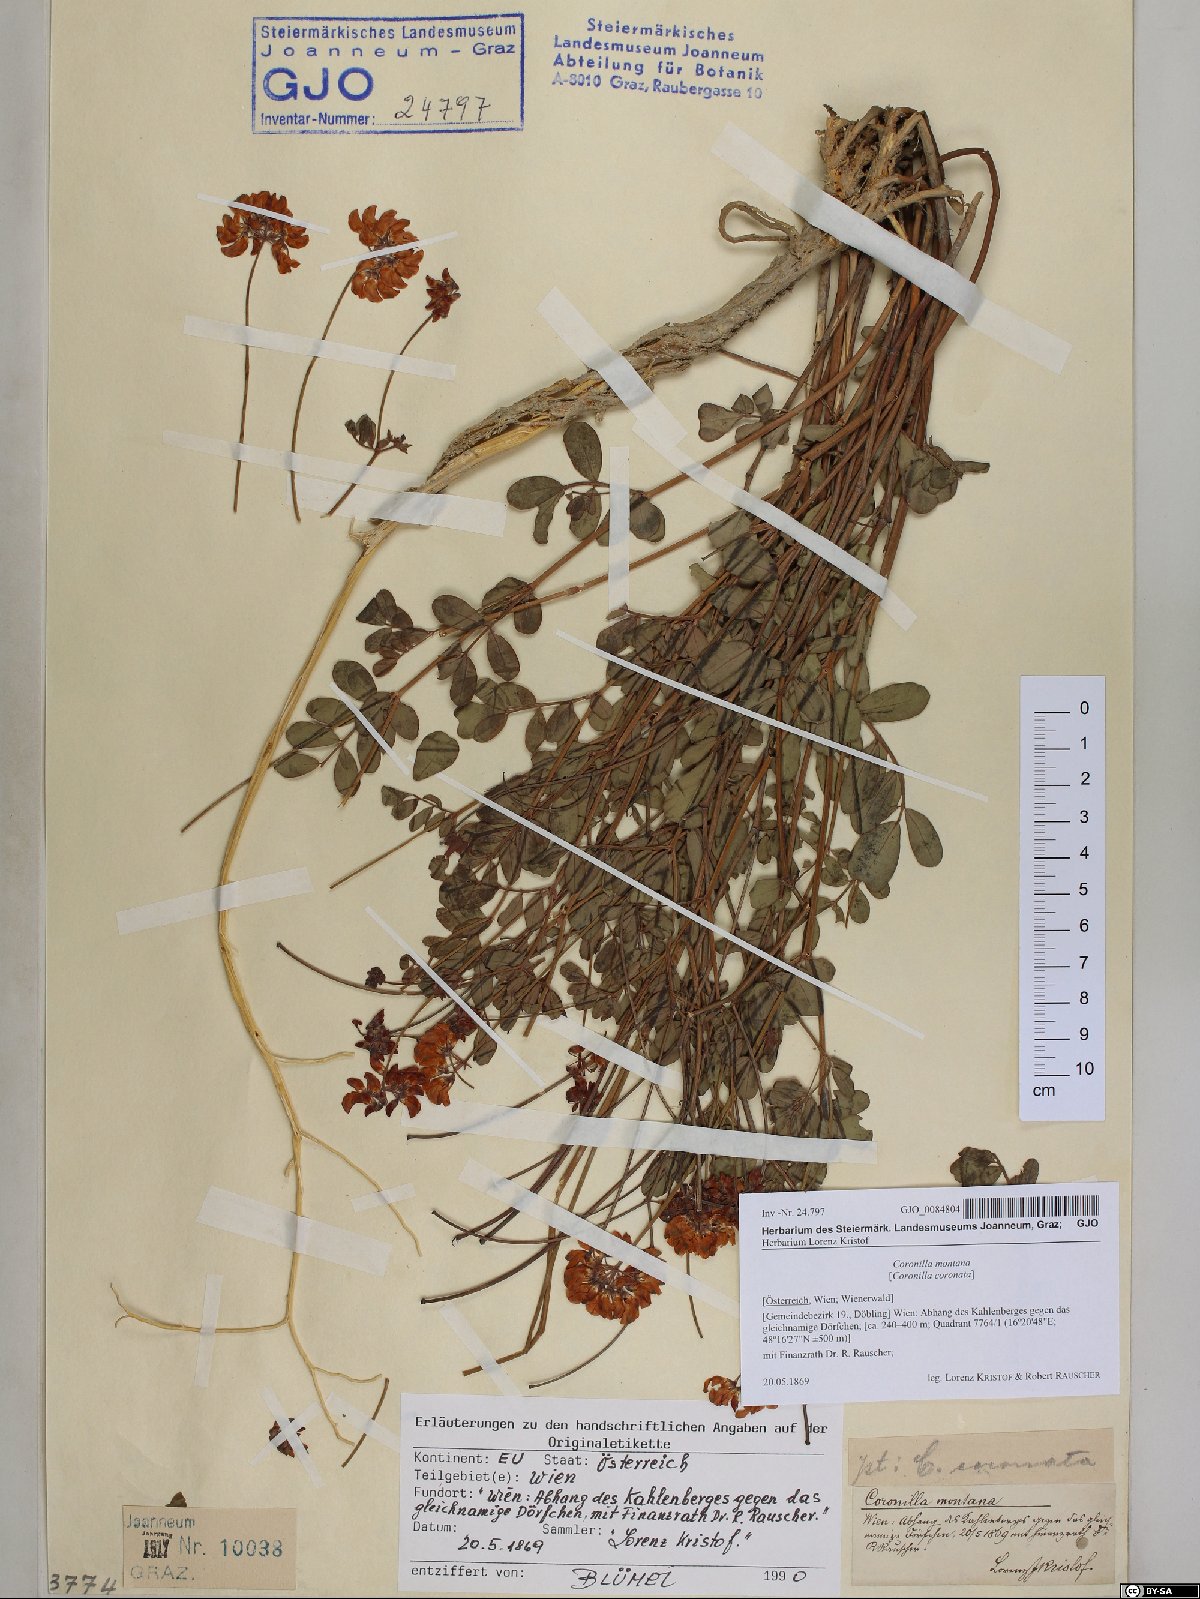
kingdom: Plantae
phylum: Tracheophyta
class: Magnoliopsida
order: Fabales
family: Fabaceae
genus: Coronilla
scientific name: Coronilla coronata
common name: Scorpion-vetch
